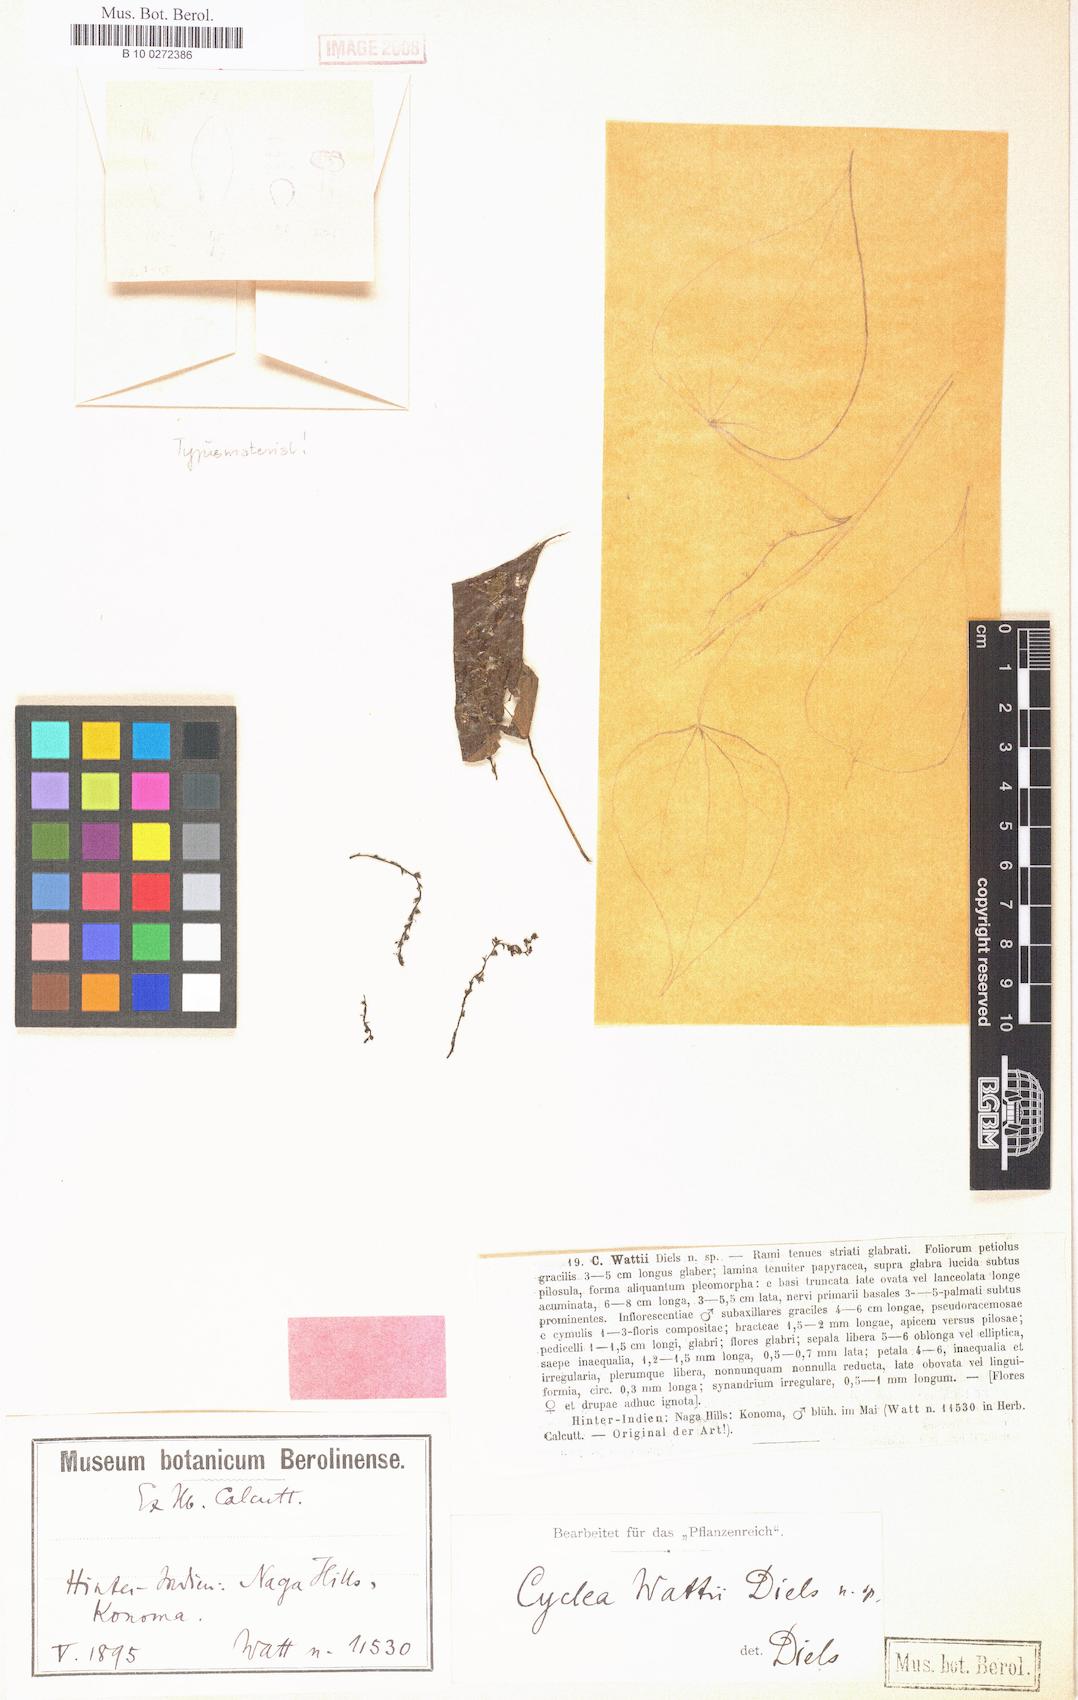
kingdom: Plantae
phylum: Tracheophyta
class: Magnoliopsida
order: Ranunculales
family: Menispermaceae
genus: Cyclea
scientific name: Cyclea wattii
